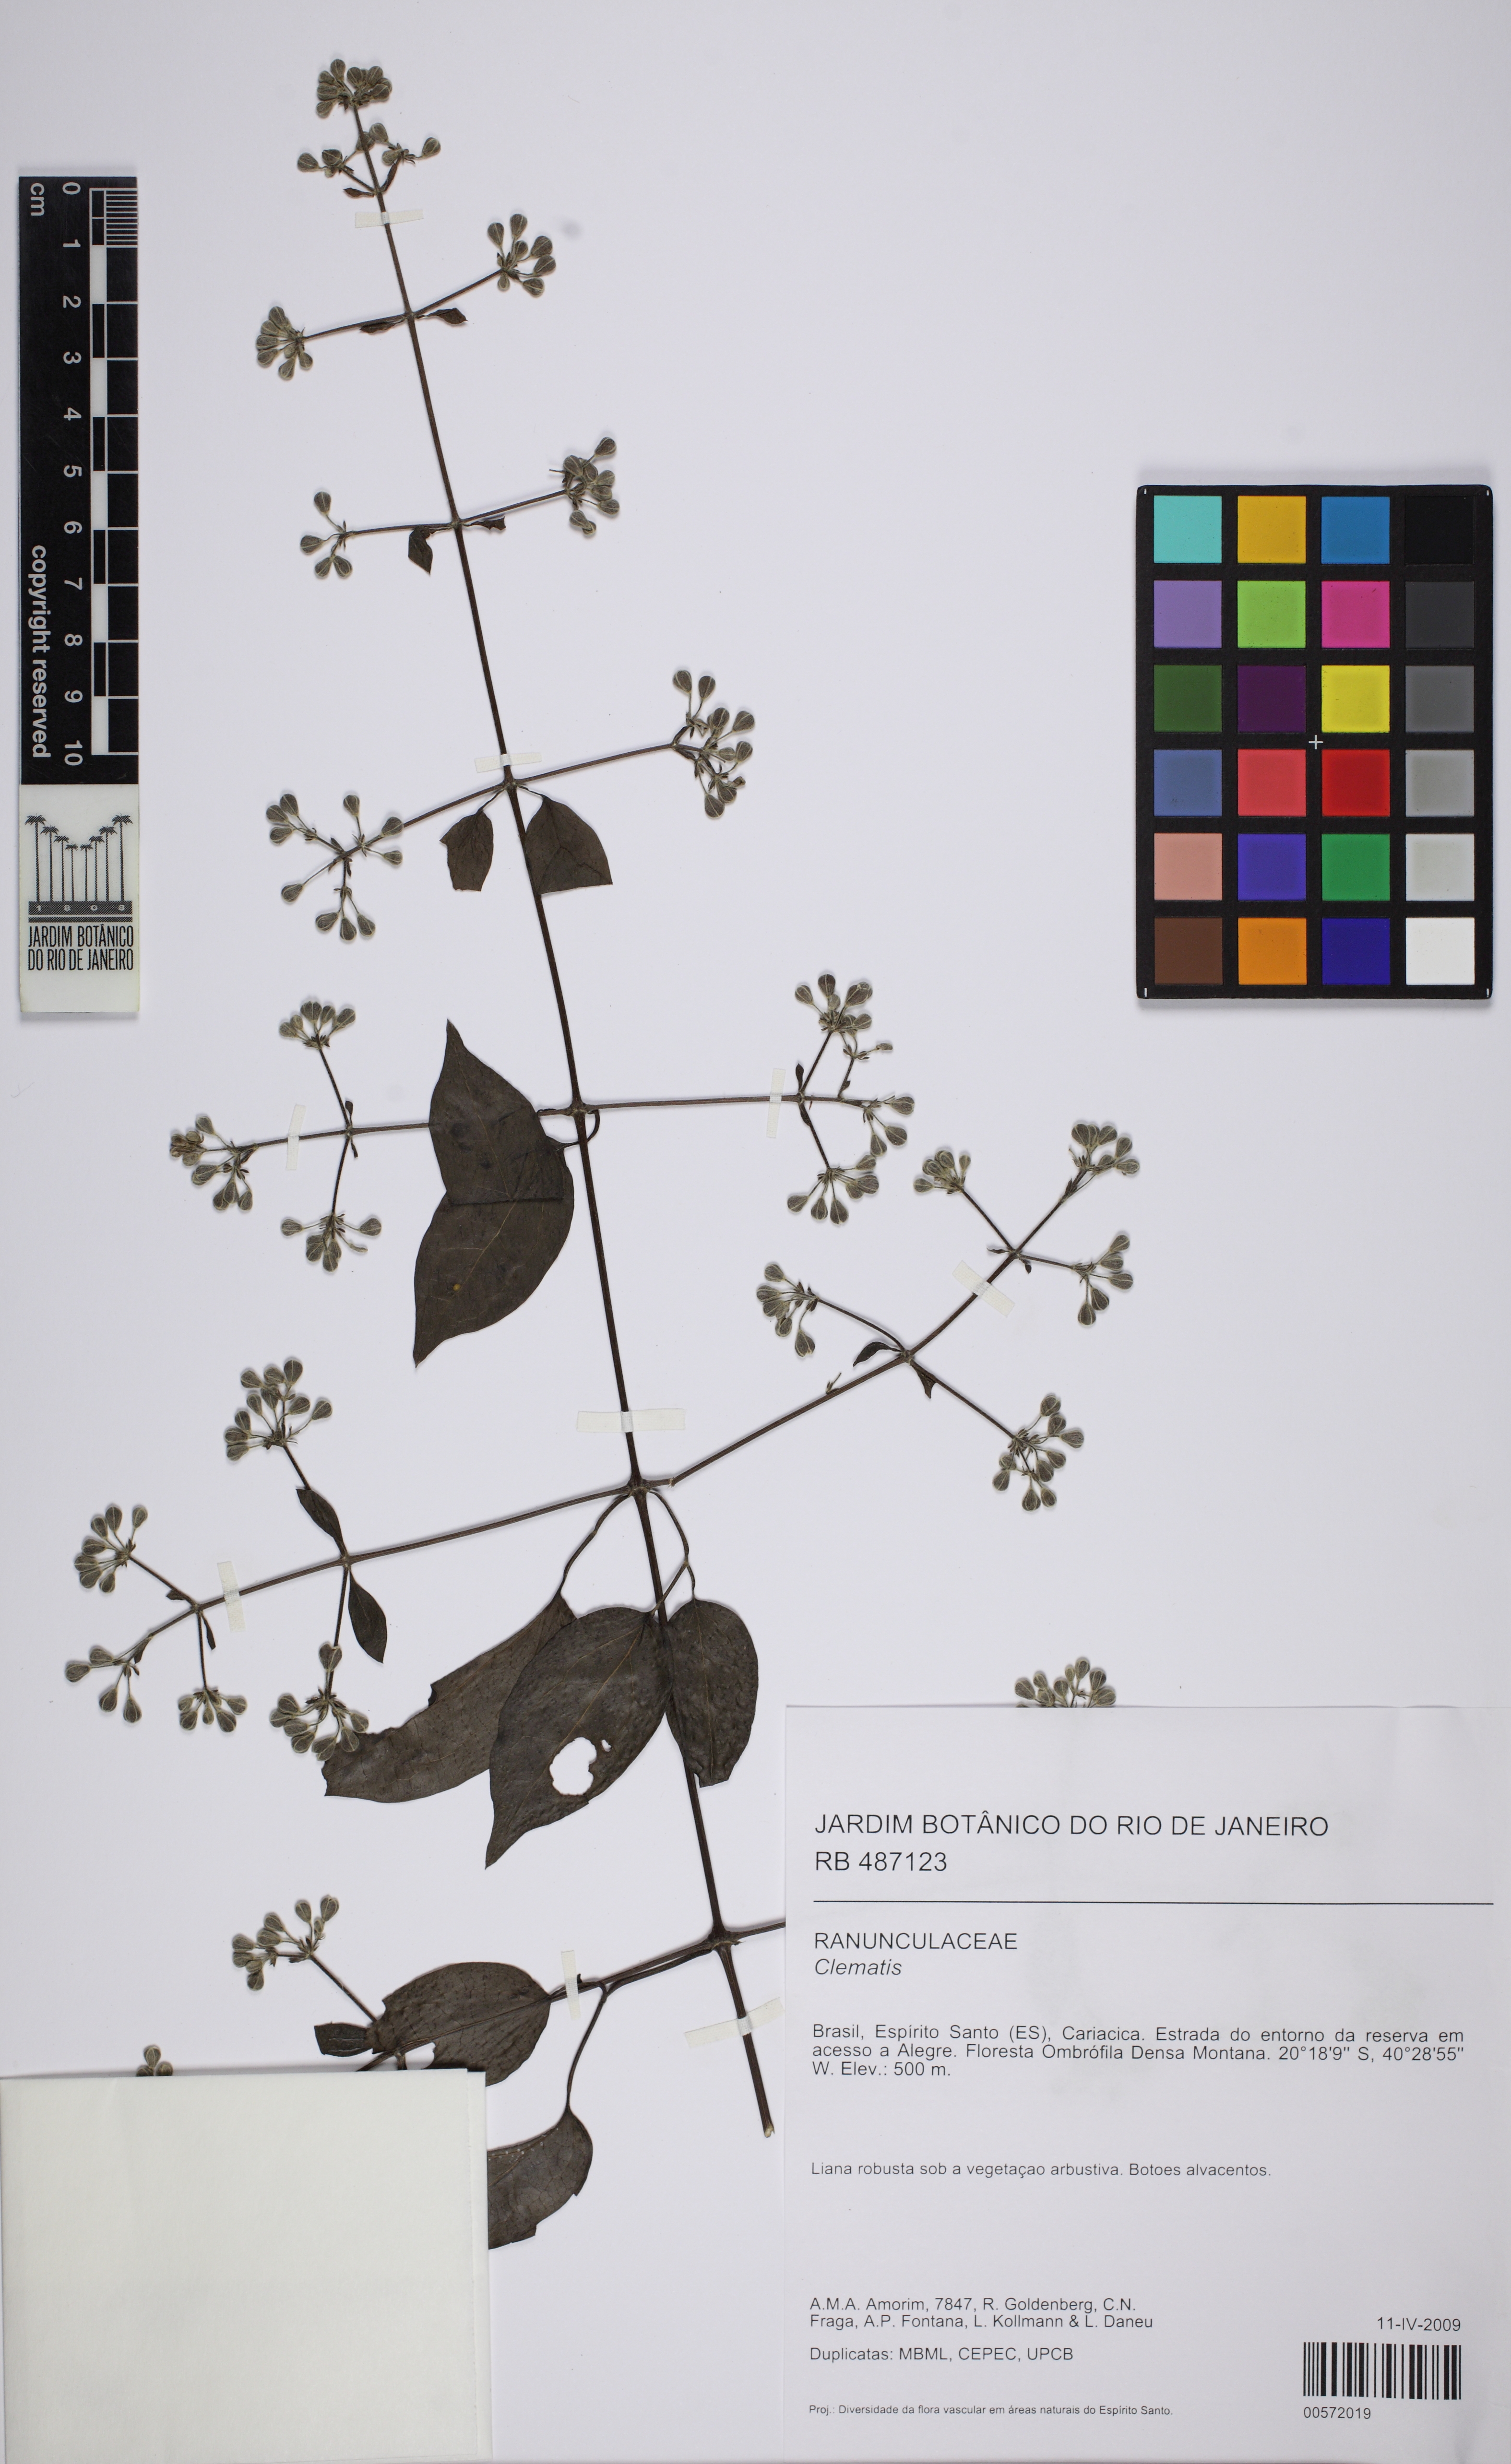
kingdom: Plantae
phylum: Tracheophyta
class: Magnoliopsida
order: Ranunculales
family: Ranunculaceae
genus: Clematis
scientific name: Clematis
